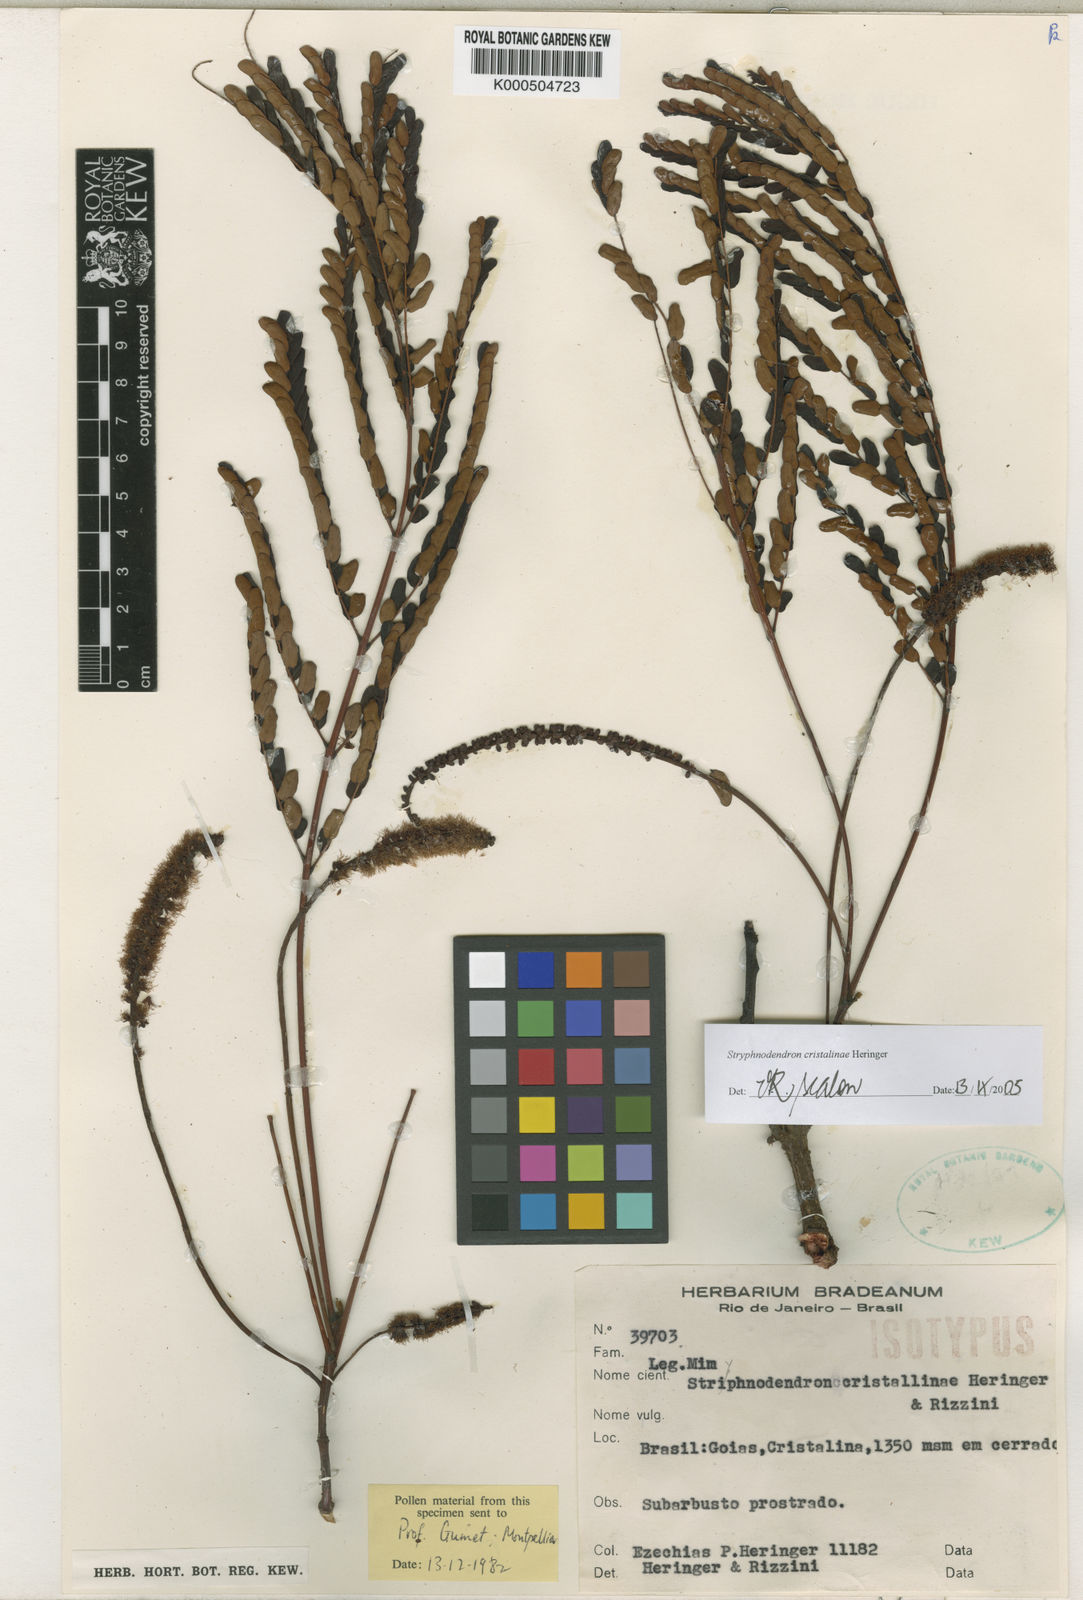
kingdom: Plantae
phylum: Tracheophyta
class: Magnoliopsida
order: Fabales
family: Fabaceae
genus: Stryphnodendron
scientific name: Stryphnodendron cristalinae
